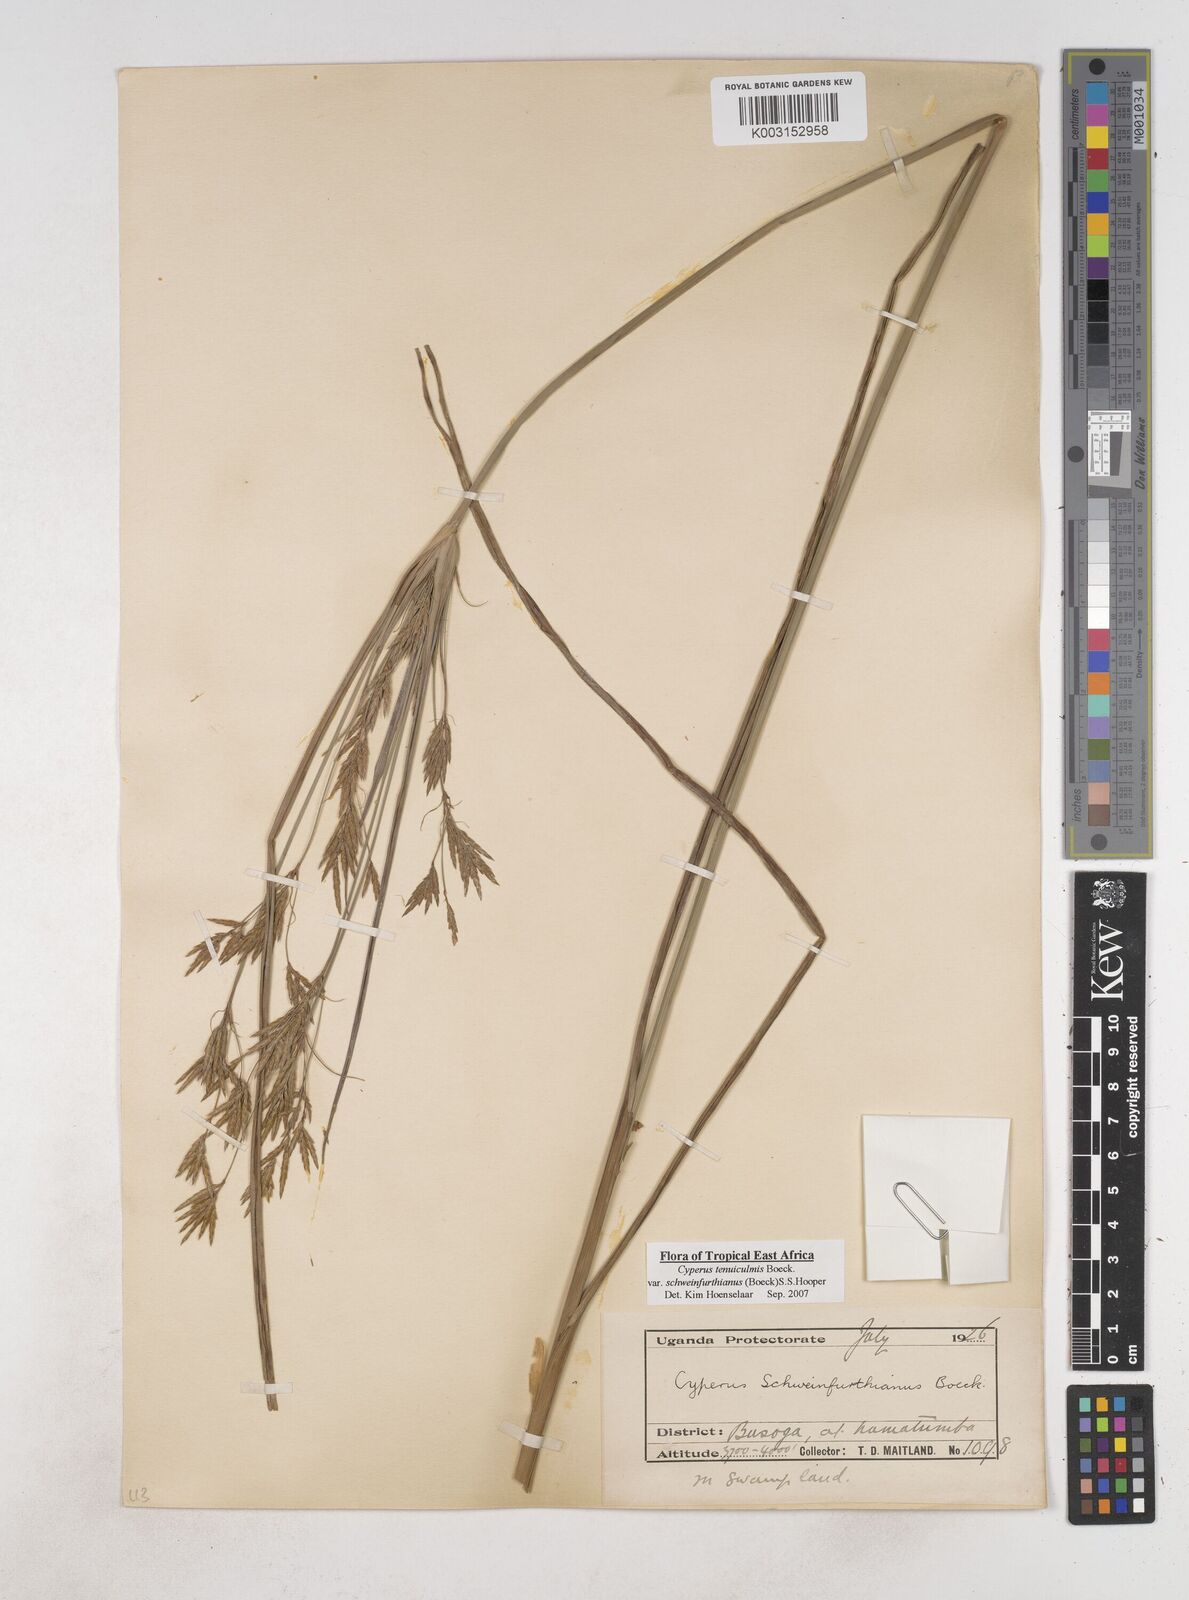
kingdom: Plantae
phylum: Tracheophyta
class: Liliopsida
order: Poales
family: Cyperaceae
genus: Cyperus
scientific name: Cyperus tenuiculmis
